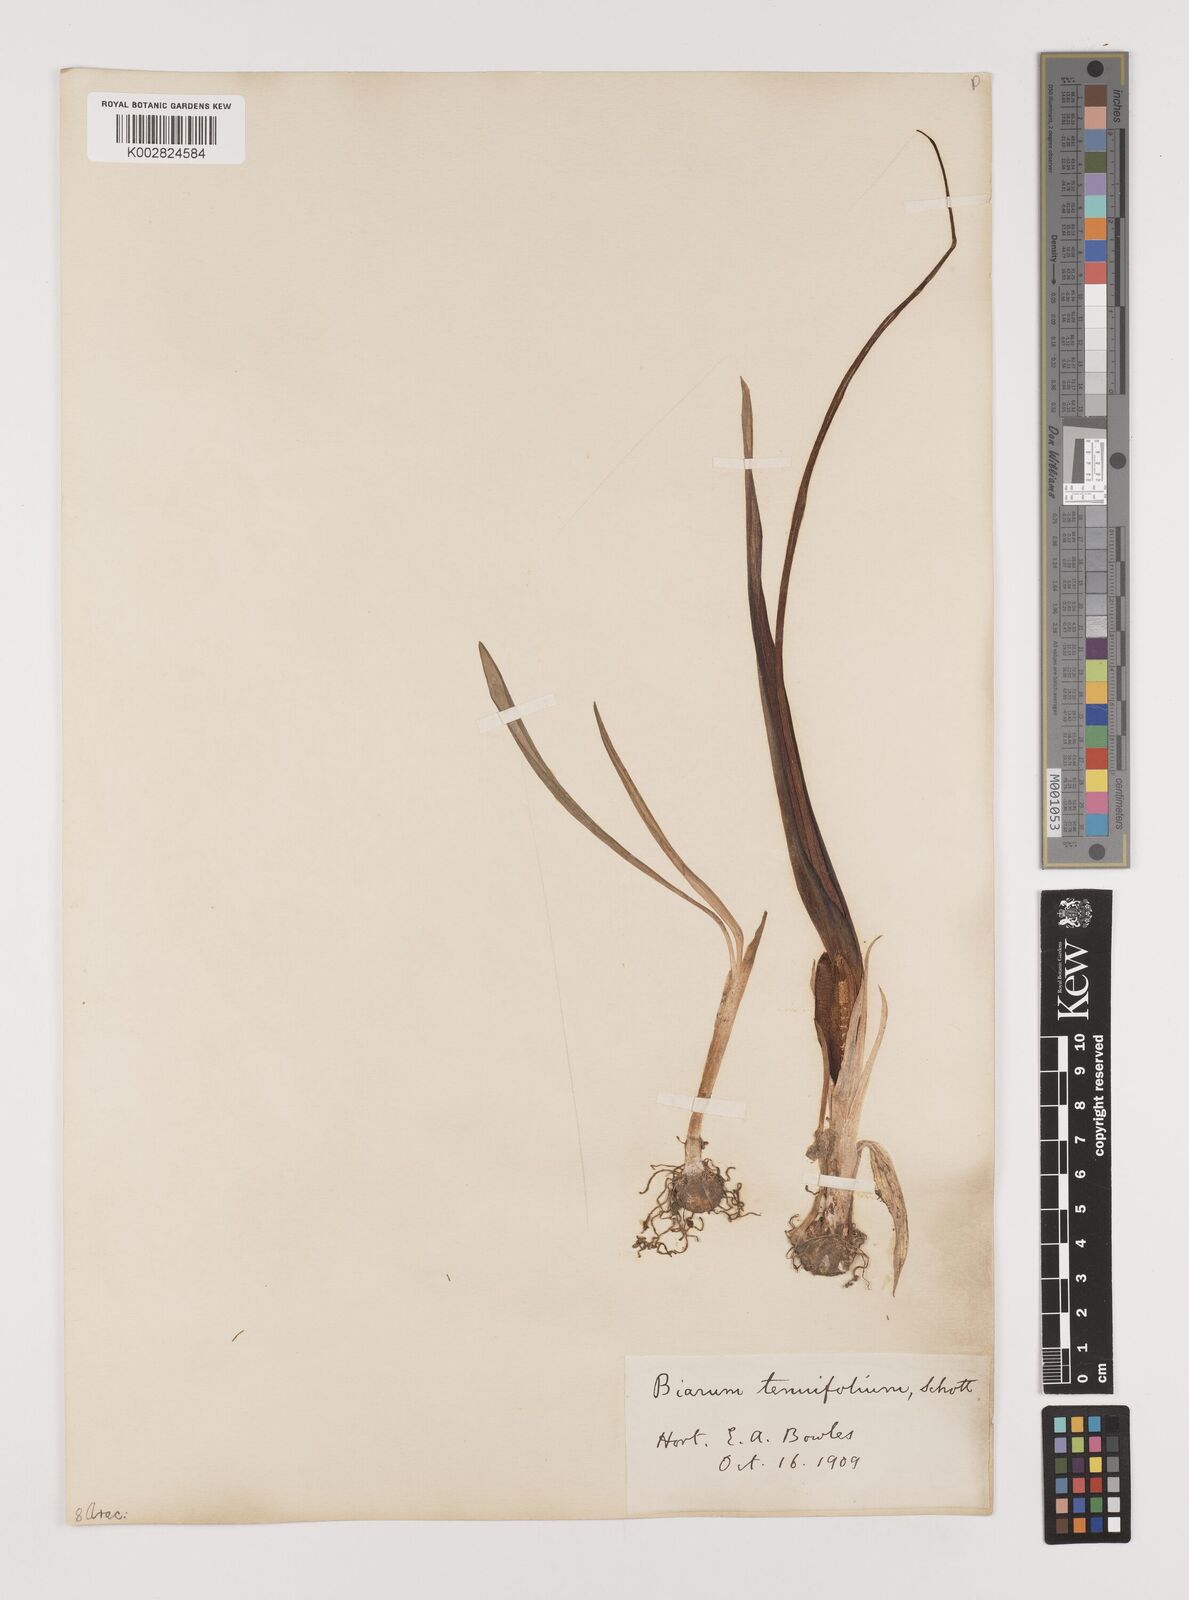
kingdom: Plantae
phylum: Tracheophyta
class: Liliopsida
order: Alismatales
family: Araceae
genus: Biarum
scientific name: Biarum tenuifolium
